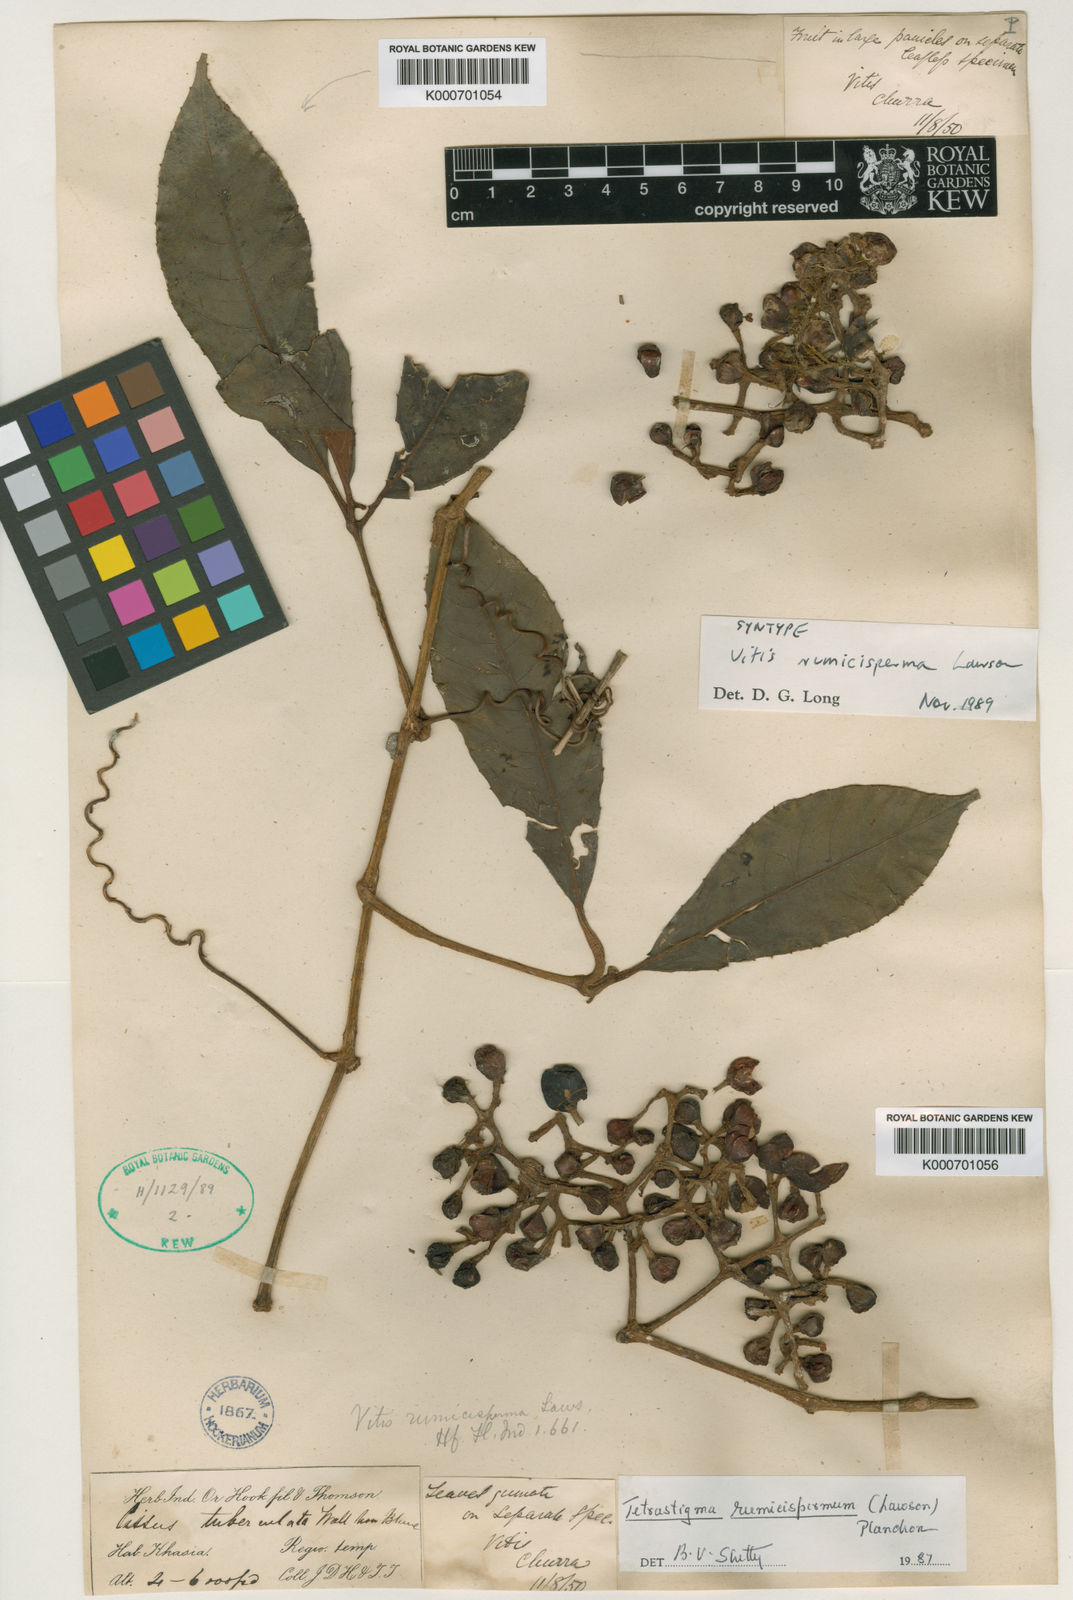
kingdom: Plantae
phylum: Tracheophyta
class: Magnoliopsida
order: Vitales
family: Vitaceae
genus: Tetrastigma
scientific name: Tetrastigma rumicispermum
